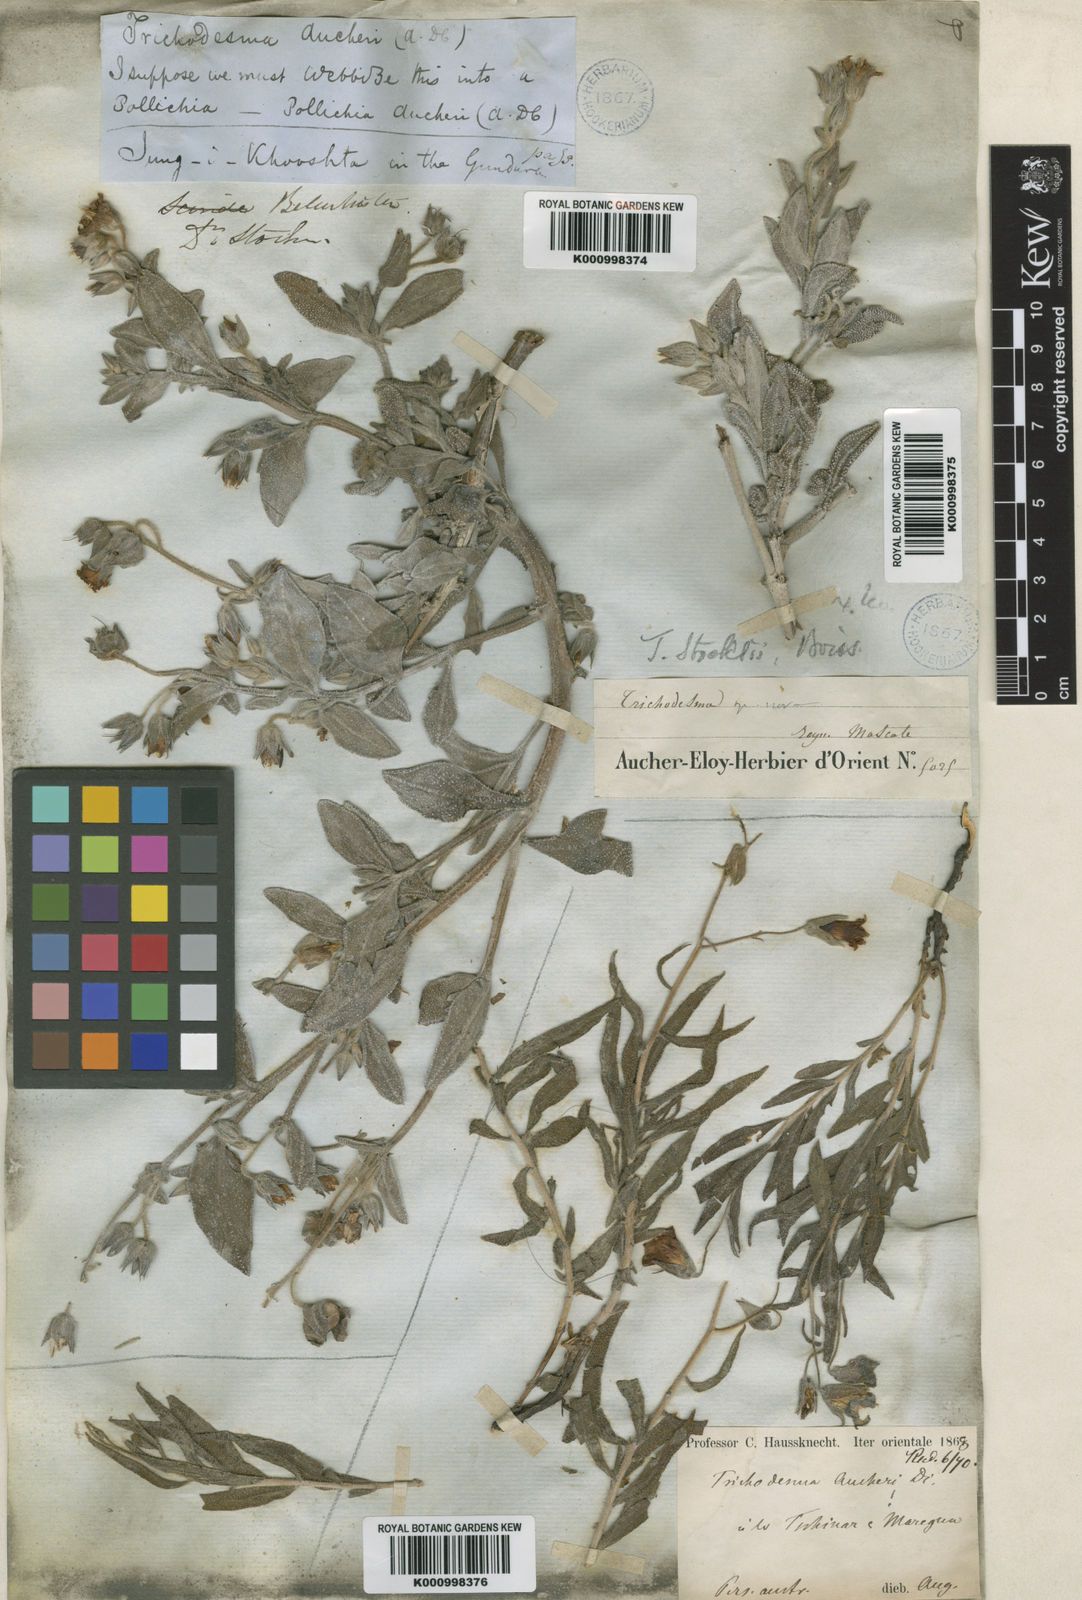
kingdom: Plantae
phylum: Tracheophyta
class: Magnoliopsida
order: Boraginales
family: Boraginaceae
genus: Trichodesma
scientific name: Trichodesma stocksii
